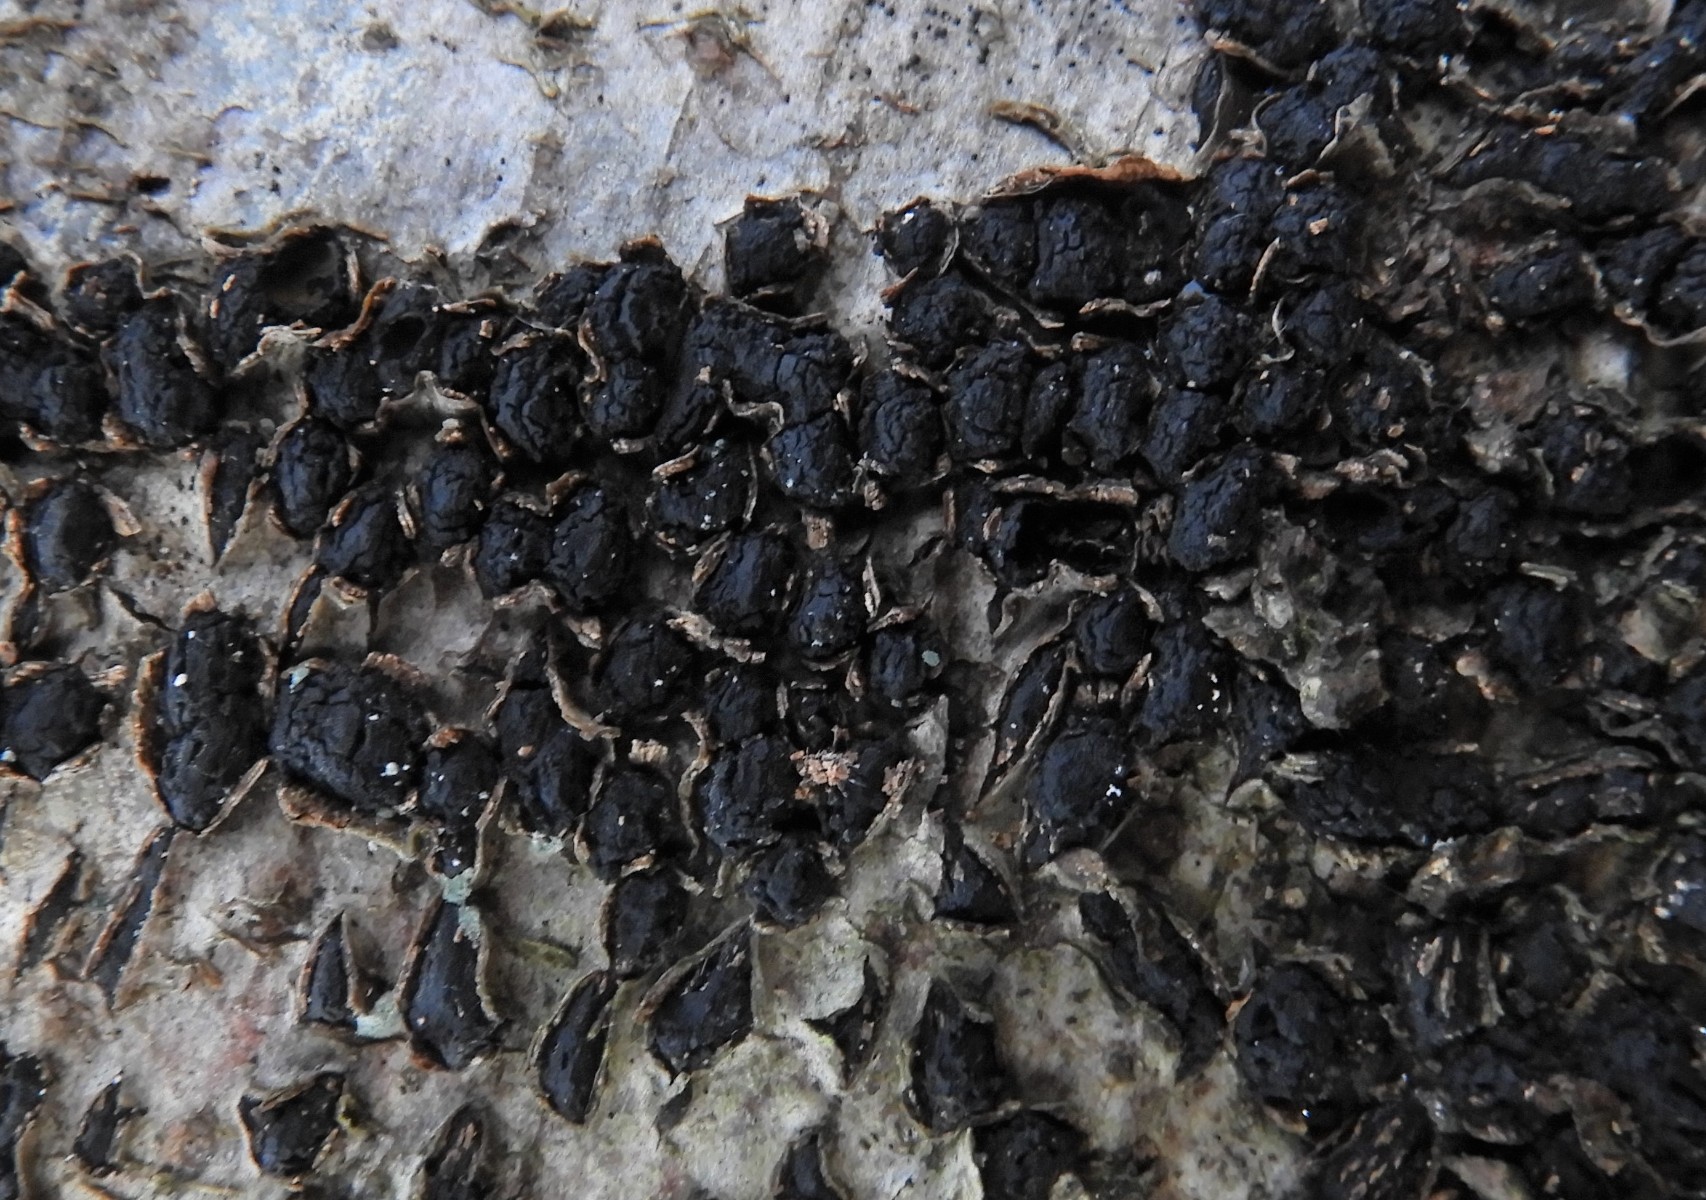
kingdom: Fungi
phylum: Ascomycota
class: Sordariomycetes
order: Xylariales
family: Melogrammataceae
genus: Melogramma
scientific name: Melogramma spiniferum
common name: bøgefod-kulhals
